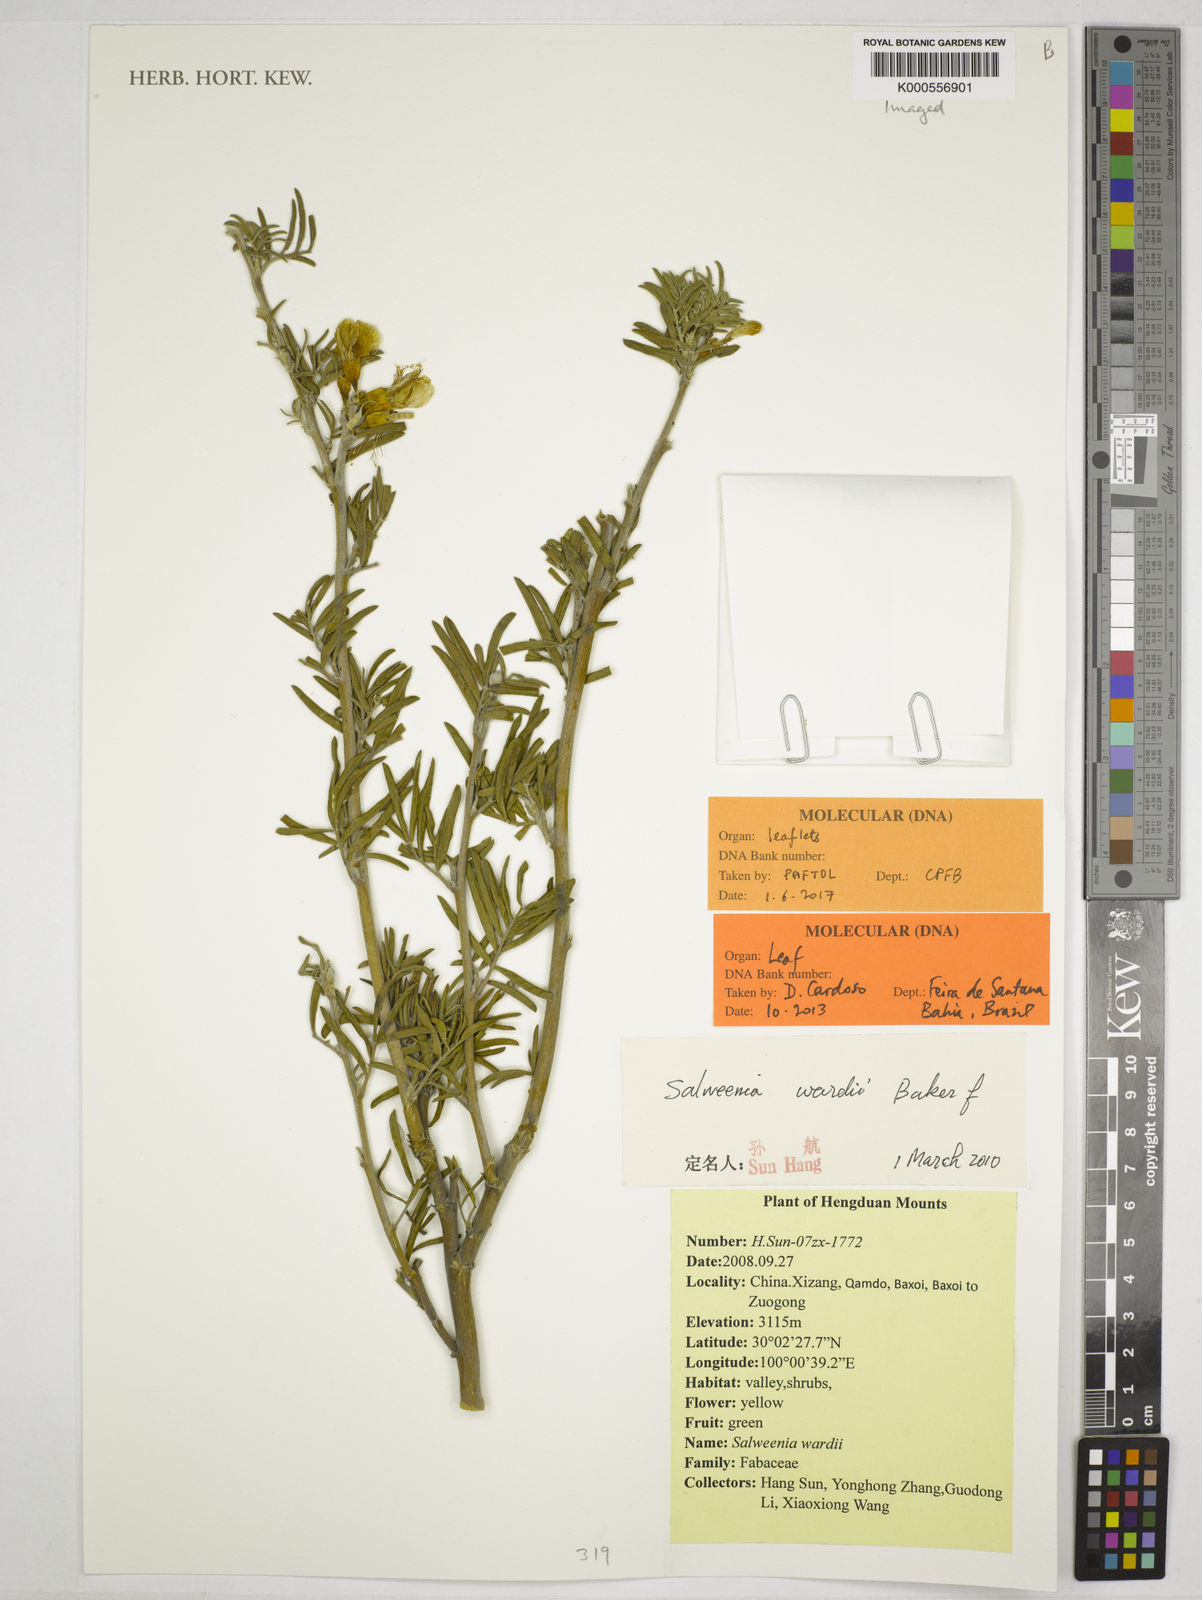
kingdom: Plantae
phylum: Tracheophyta
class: Magnoliopsida
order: Fabales
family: Fabaceae
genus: Salweenia
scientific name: Salweenia wardii
